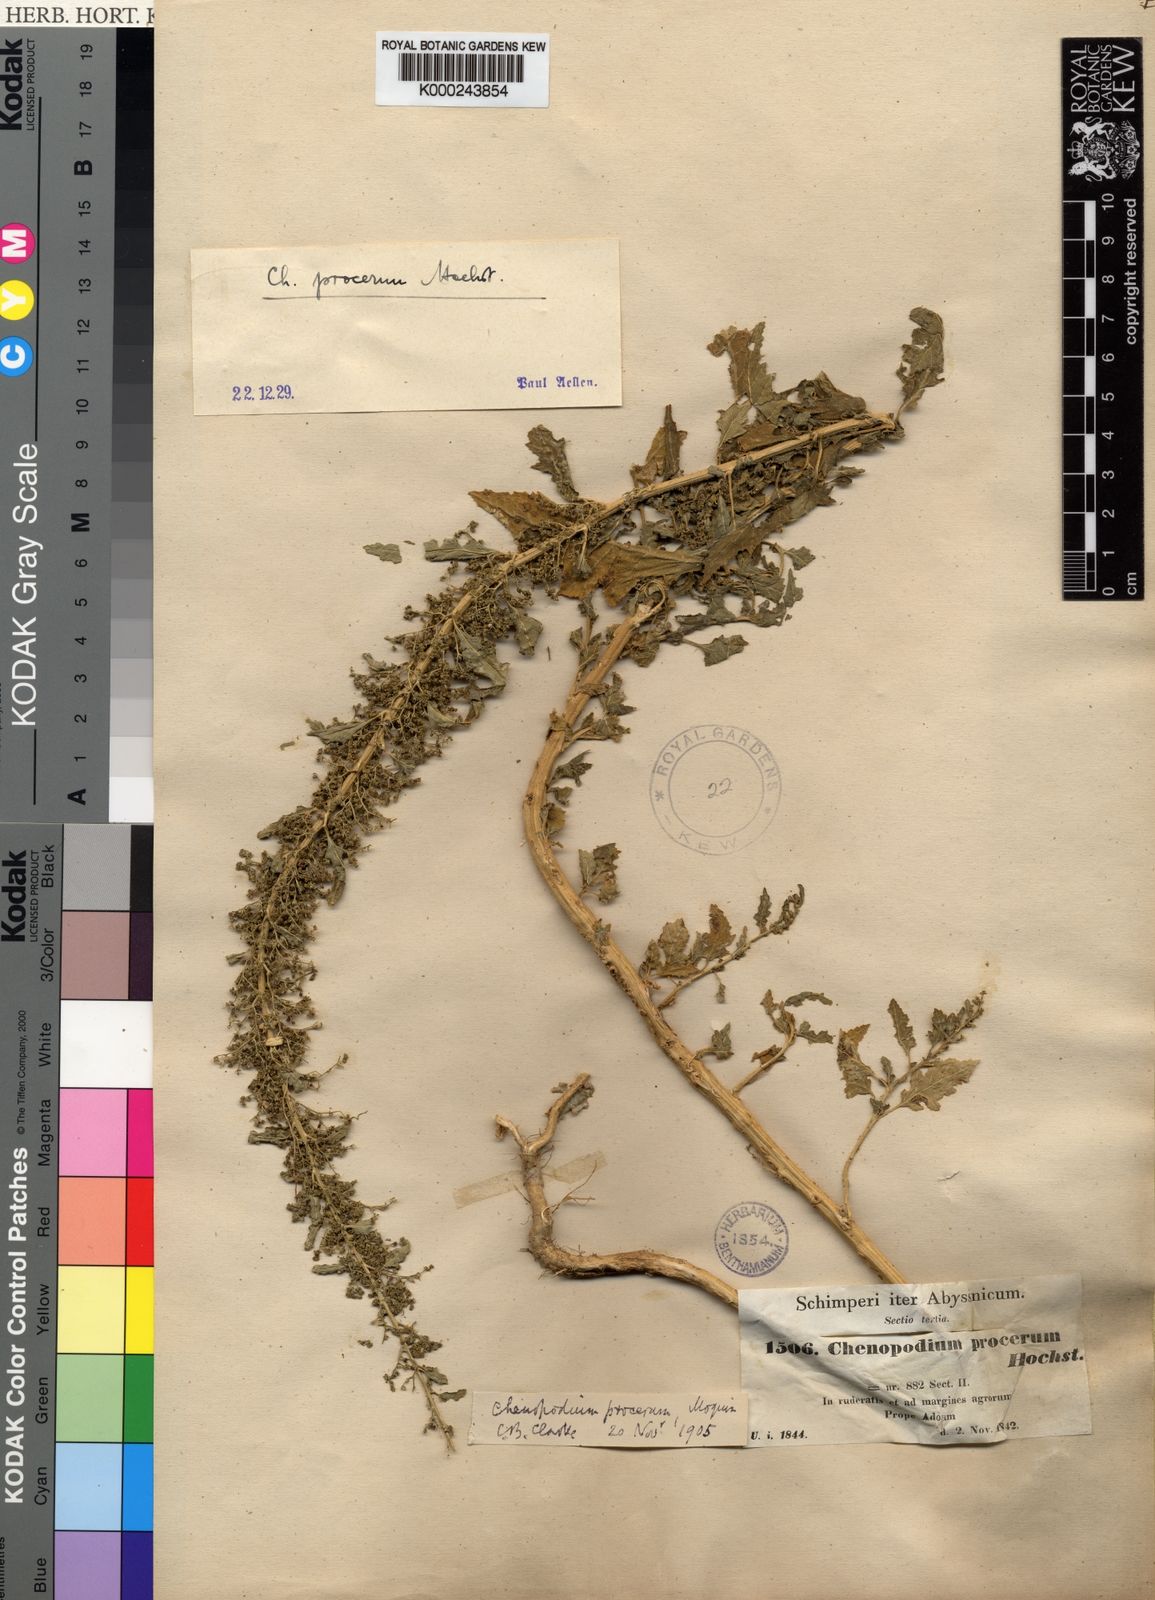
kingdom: Plantae
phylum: Tracheophyta
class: Magnoliopsida
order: Caryophyllales
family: Amaranthaceae
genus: Dysphania
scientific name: Dysphania procera
